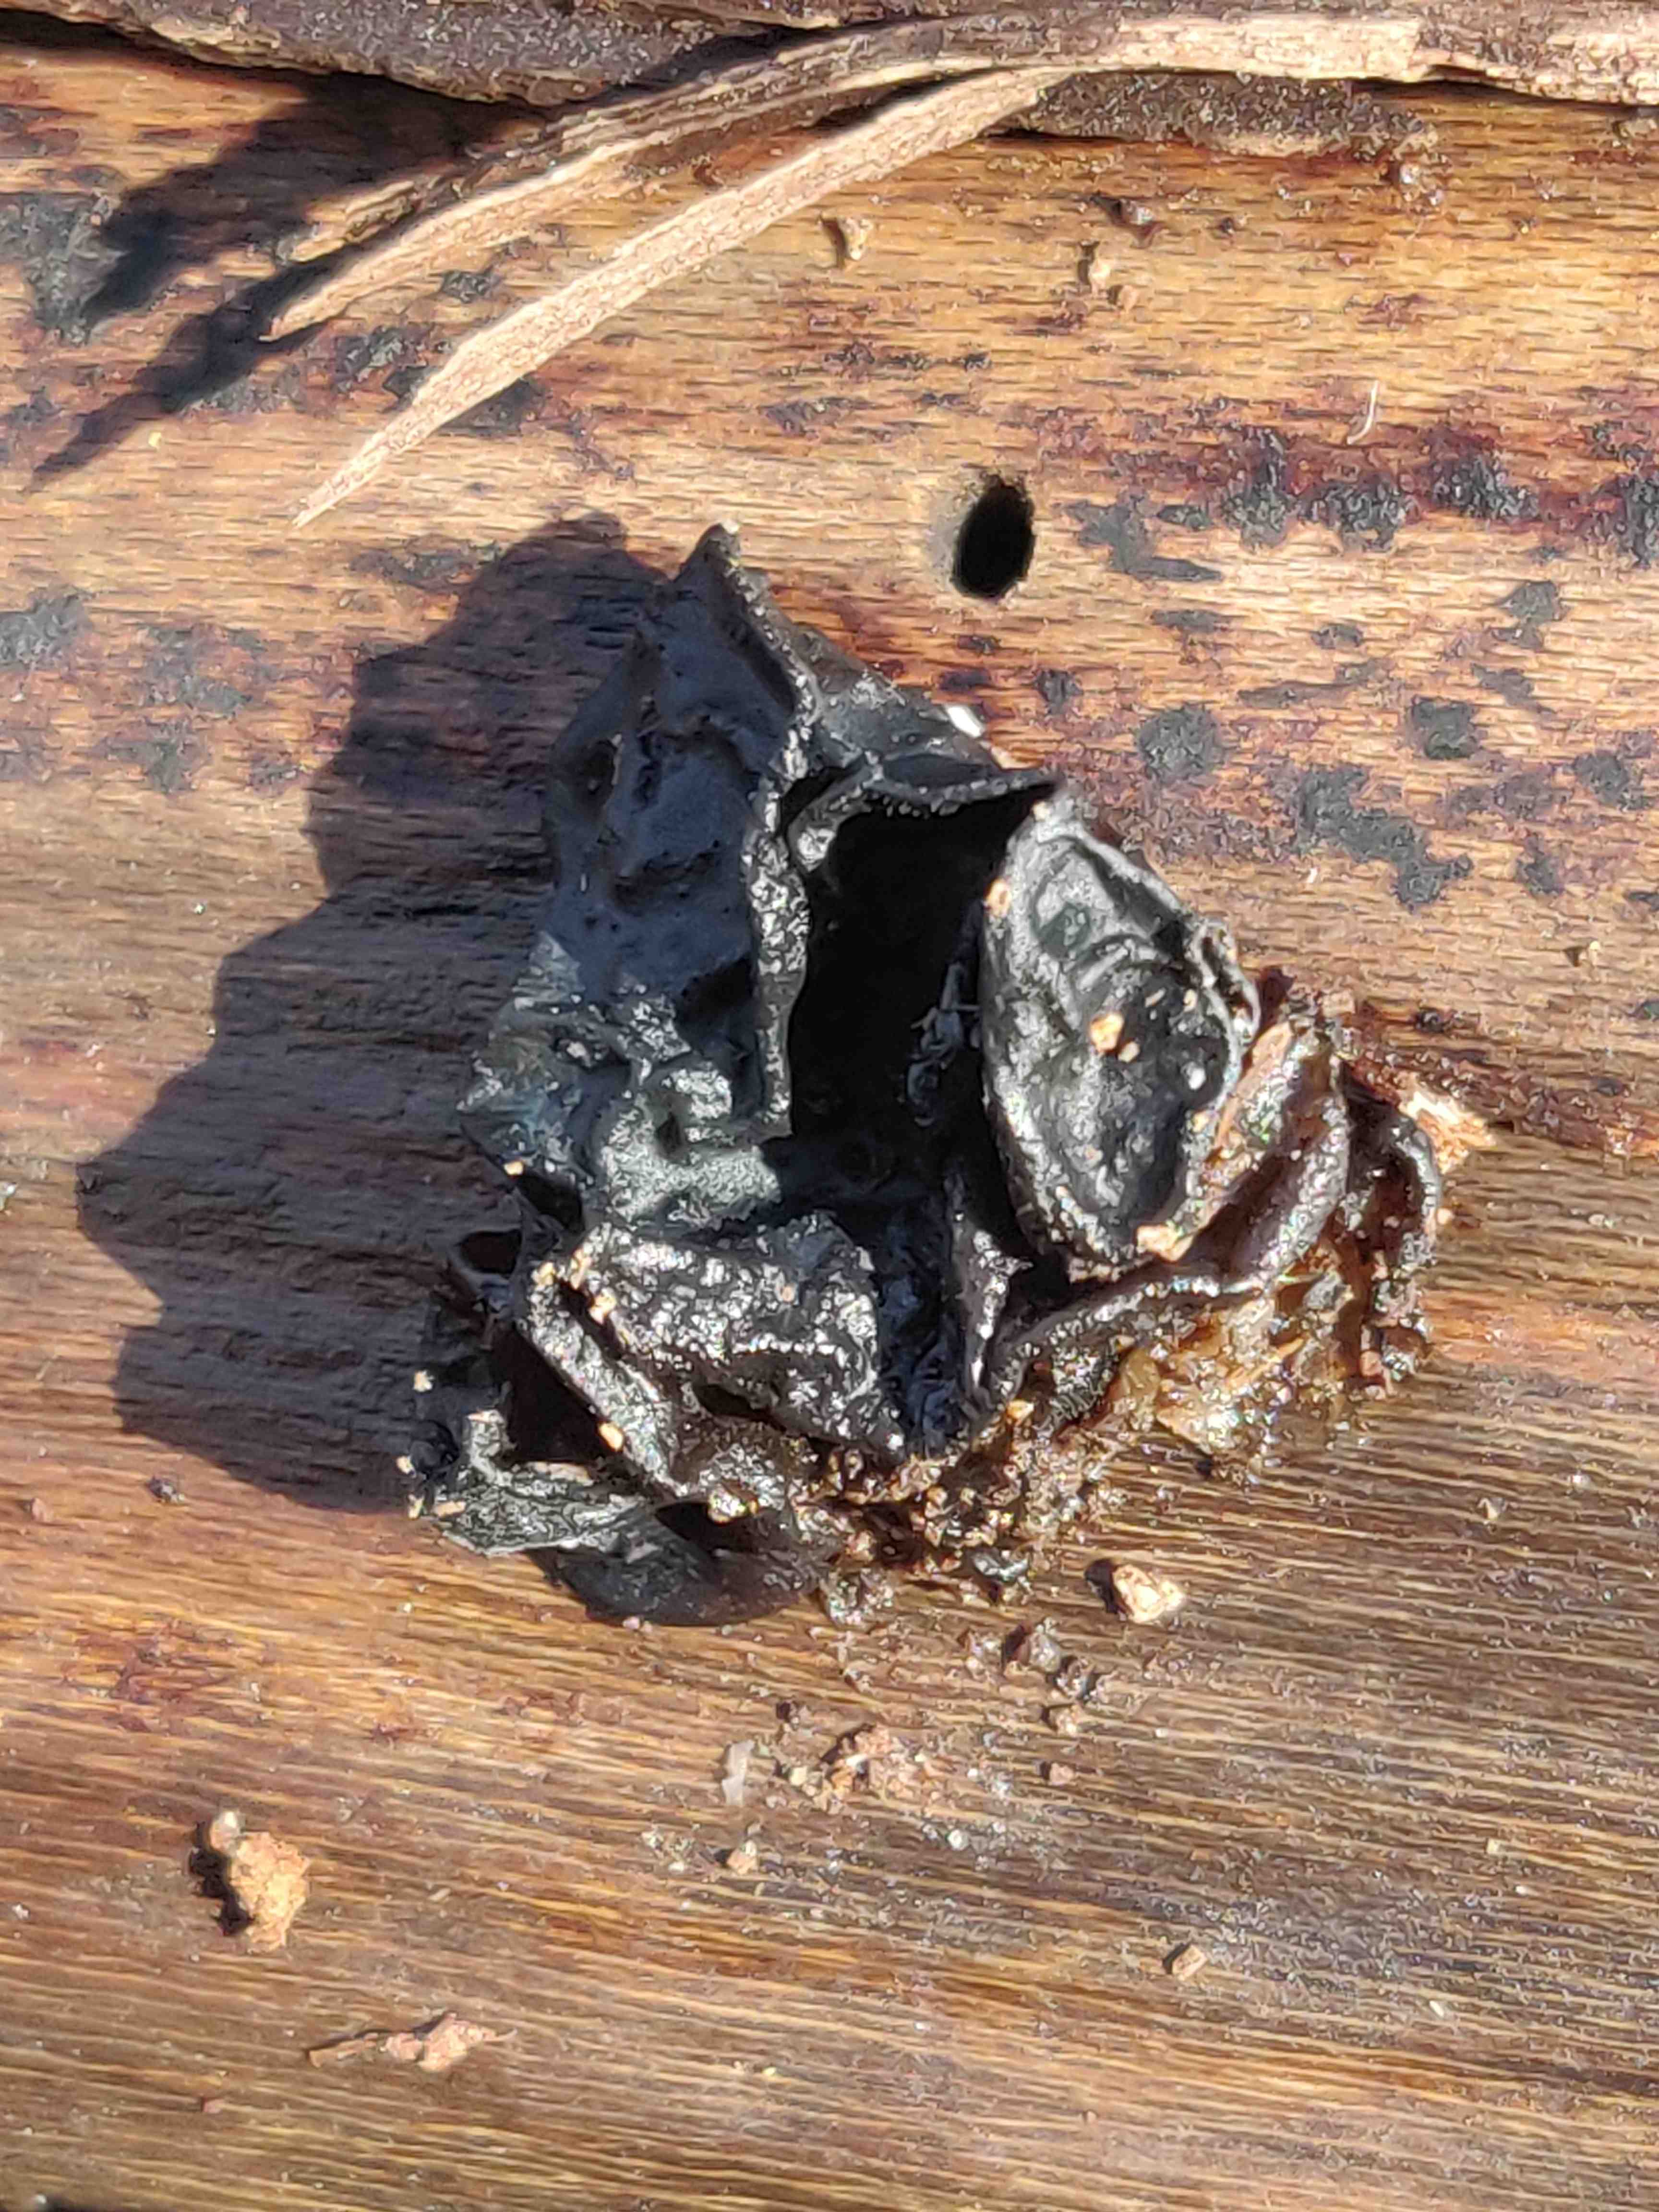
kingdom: Fungi
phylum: Basidiomycota
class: Agaricomycetes
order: Auriculariales
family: Auriculariaceae
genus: Exidia
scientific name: Exidia nigricans
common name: almindelig bævretop
